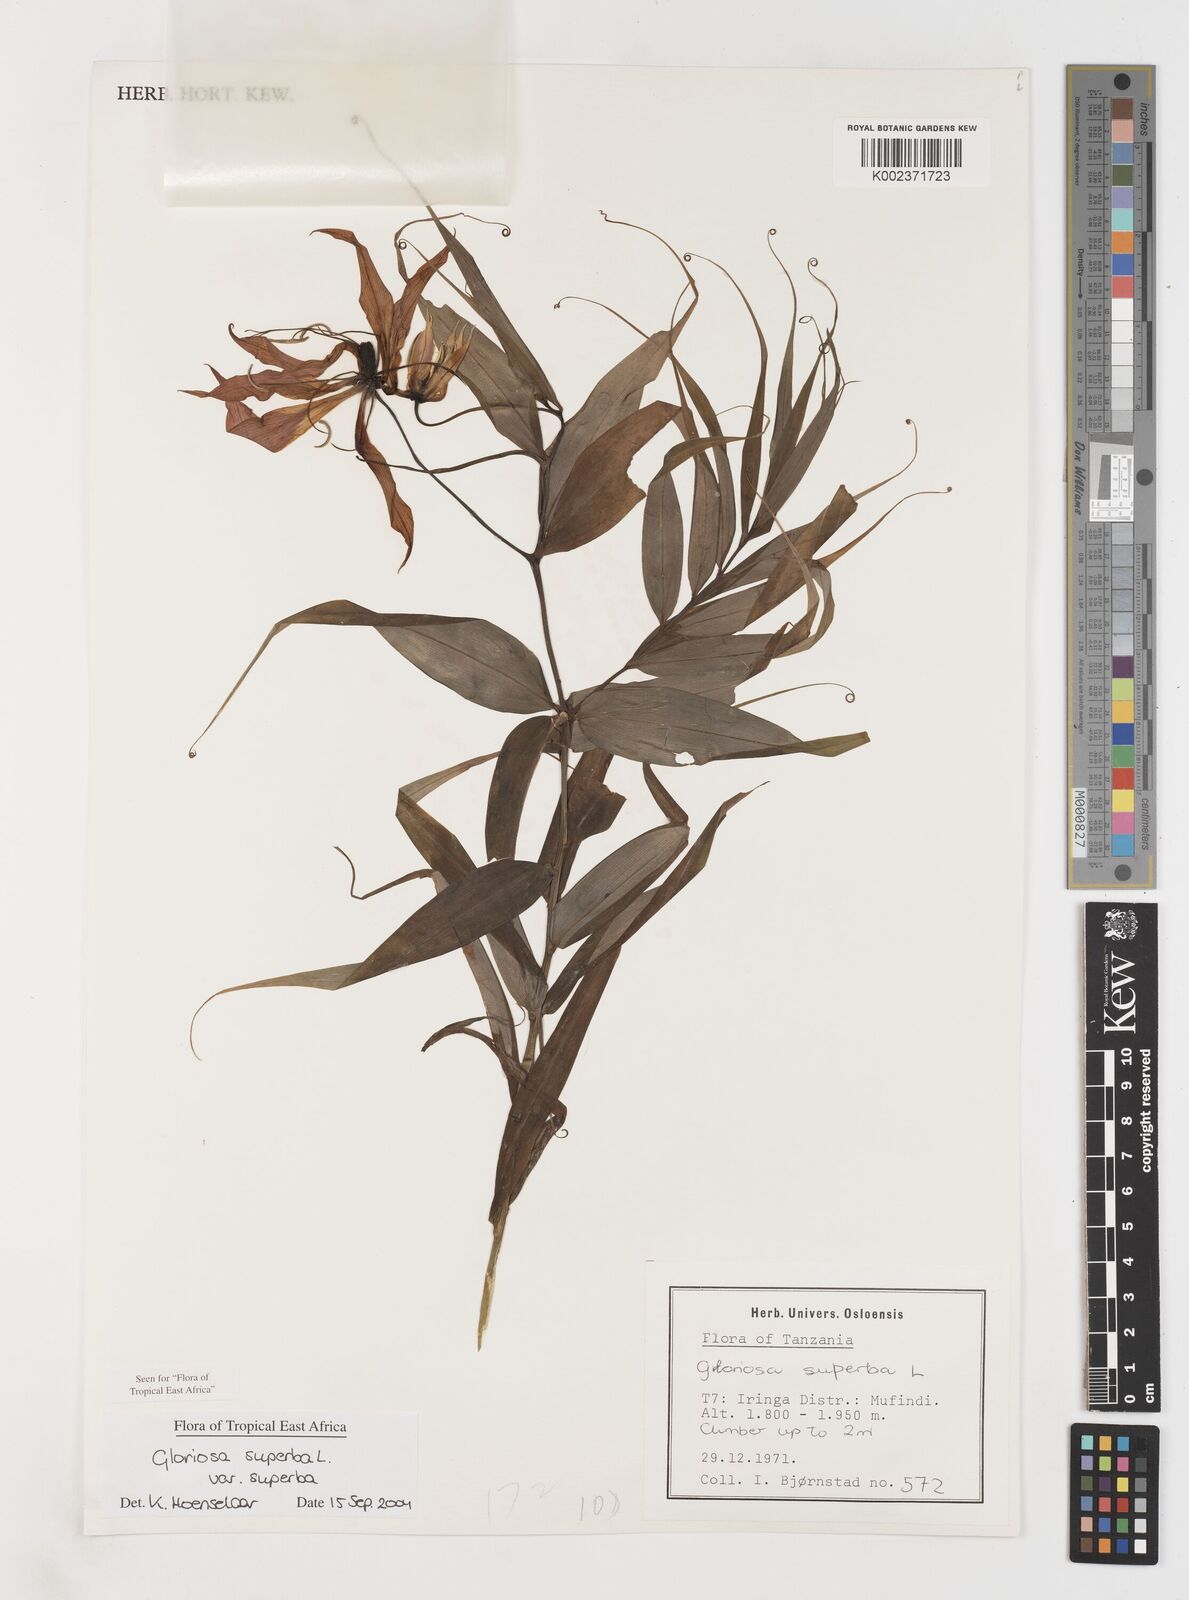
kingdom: Plantae
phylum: Tracheophyta
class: Liliopsida
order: Liliales
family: Colchicaceae
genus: Gloriosa
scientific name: Gloriosa simplex
